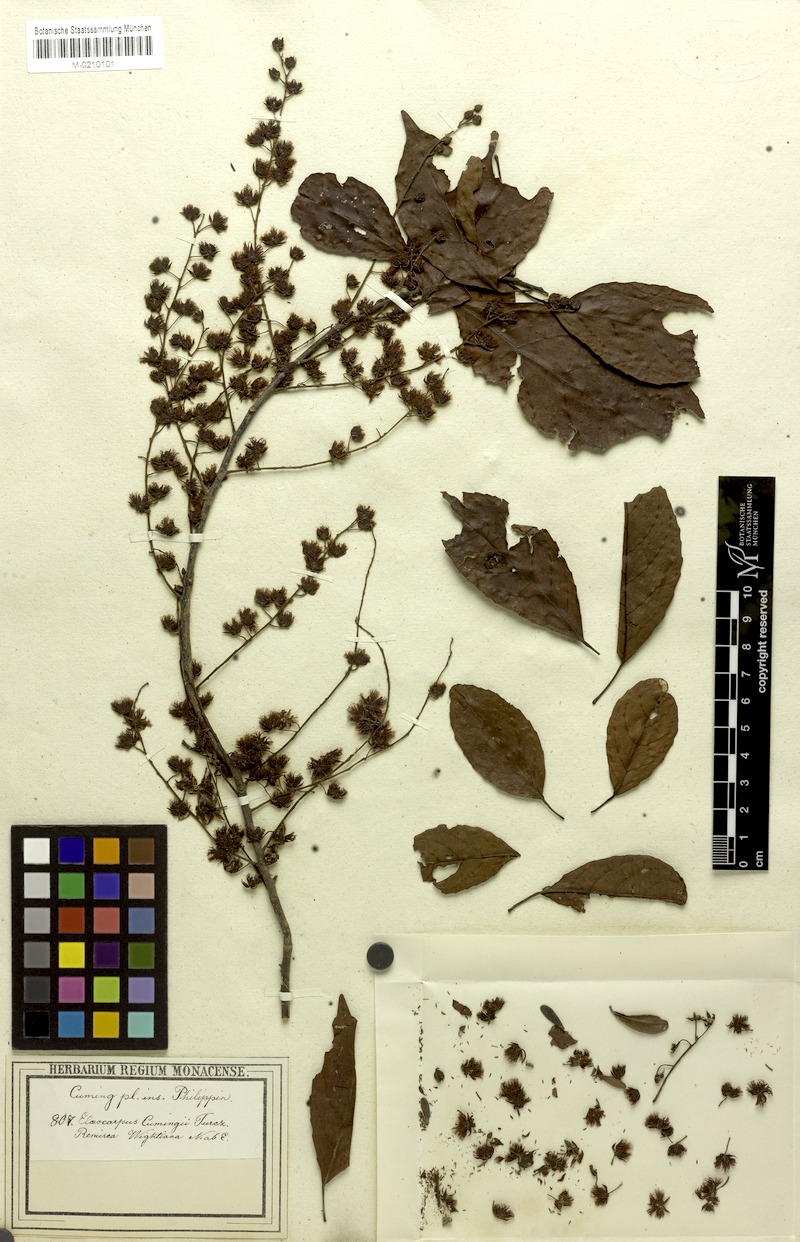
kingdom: Plantae
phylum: Tracheophyta
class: Magnoliopsida
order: Oxalidales
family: Elaeocarpaceae
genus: Elaeocarpus
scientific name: Elaeocarpus cumingii
